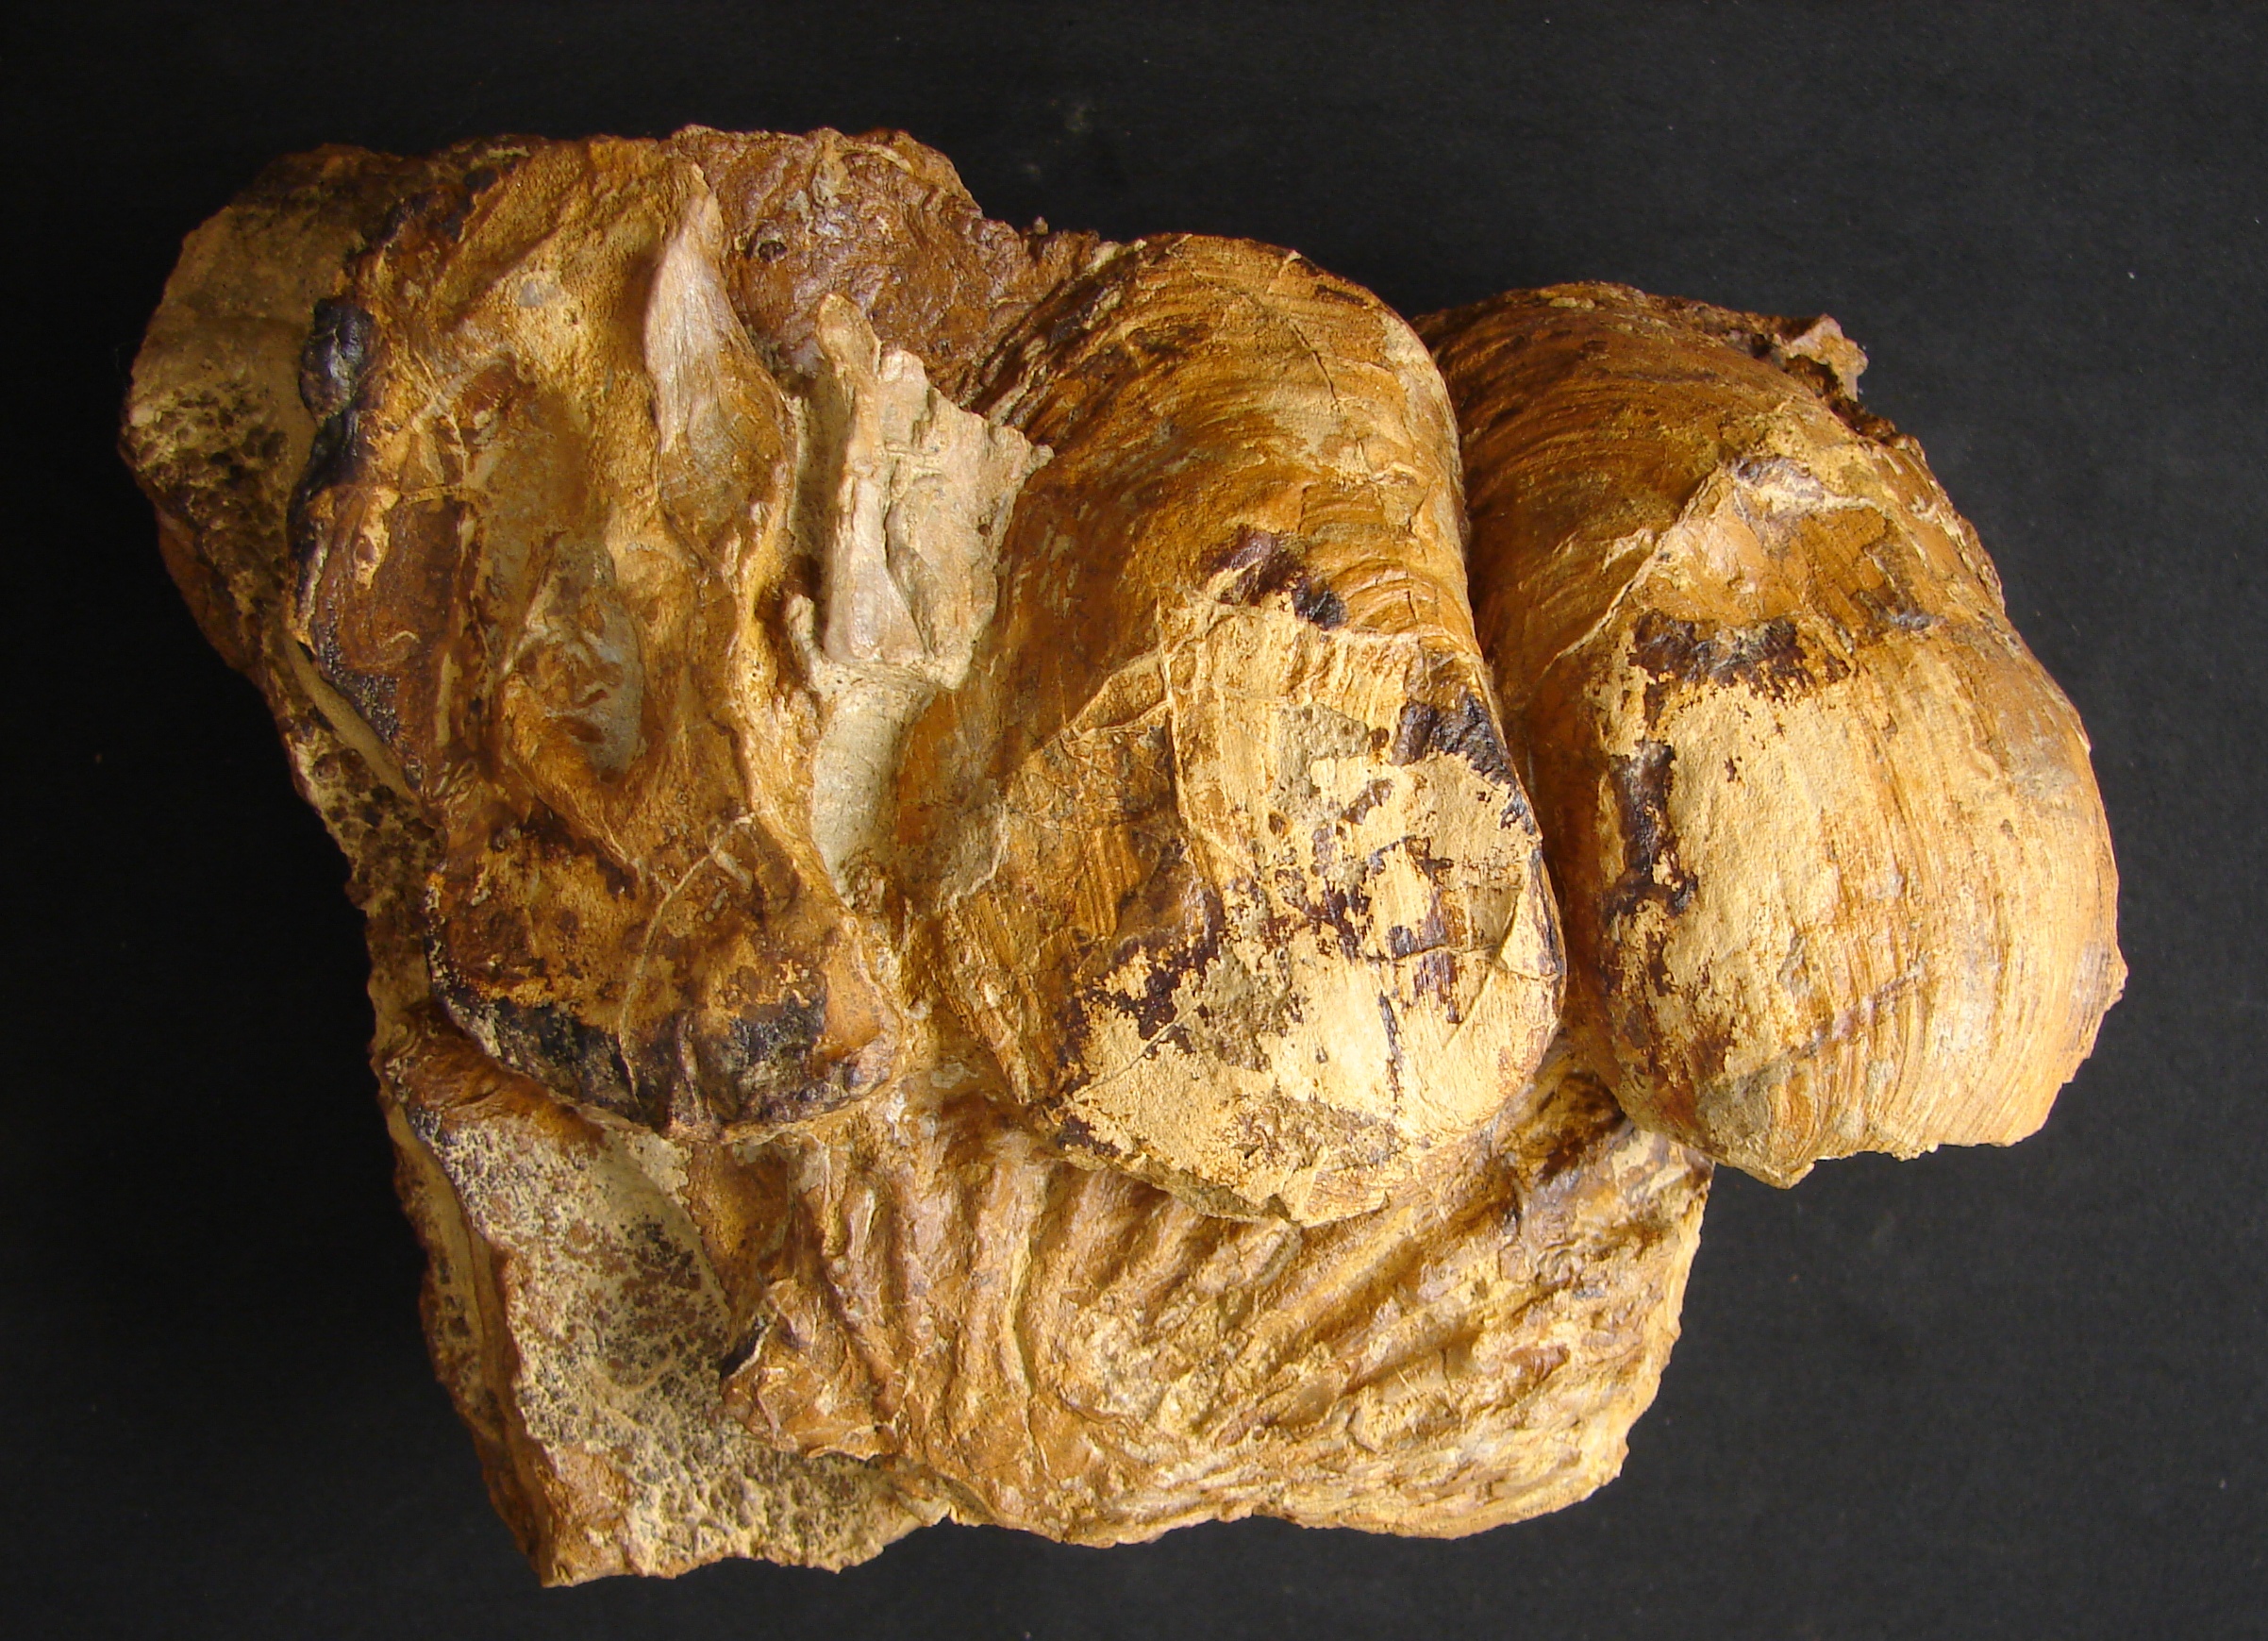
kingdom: Animalia
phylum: Mollusca
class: Bivalvia
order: Limida
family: Limidae
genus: Ctenostreon
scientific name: Ctenostreon
